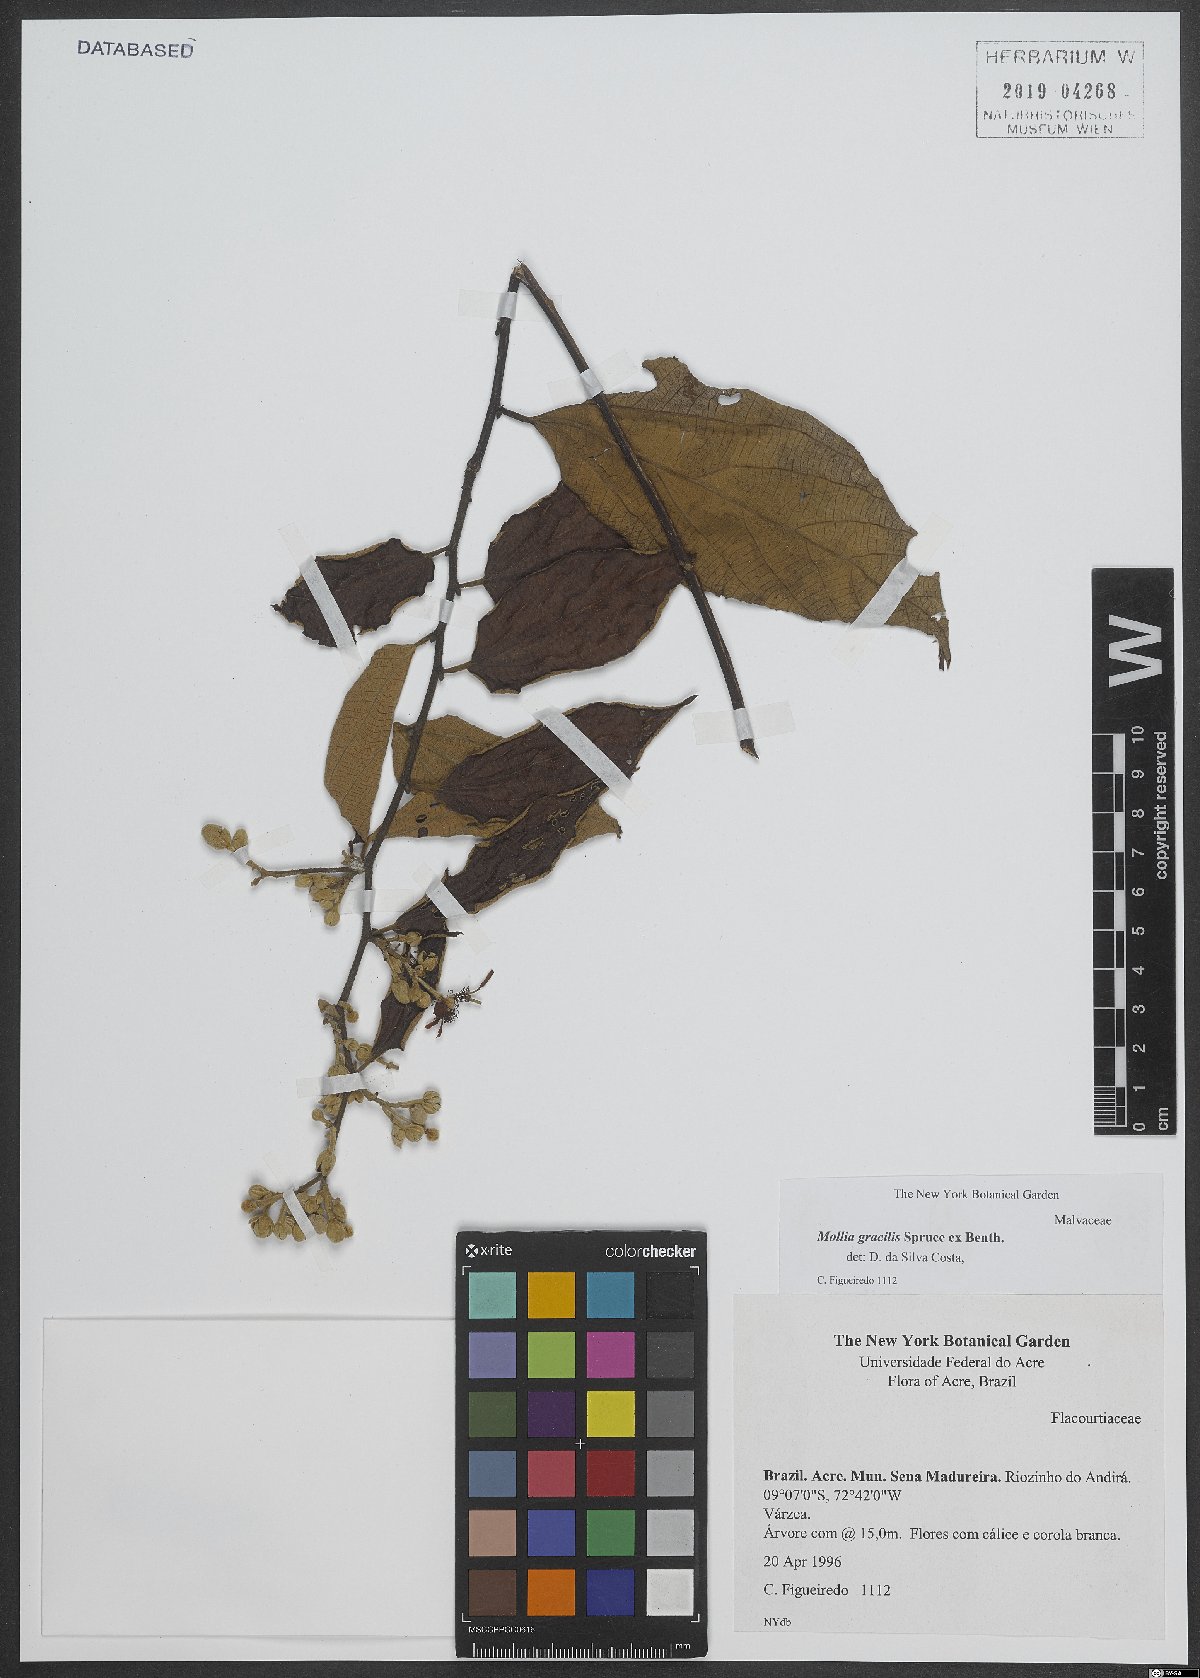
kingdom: Plantae
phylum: Tracheophyta
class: Magnoliopsida
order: Malvales
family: Malvaceae
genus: Mollia
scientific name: Mollia gracilis
